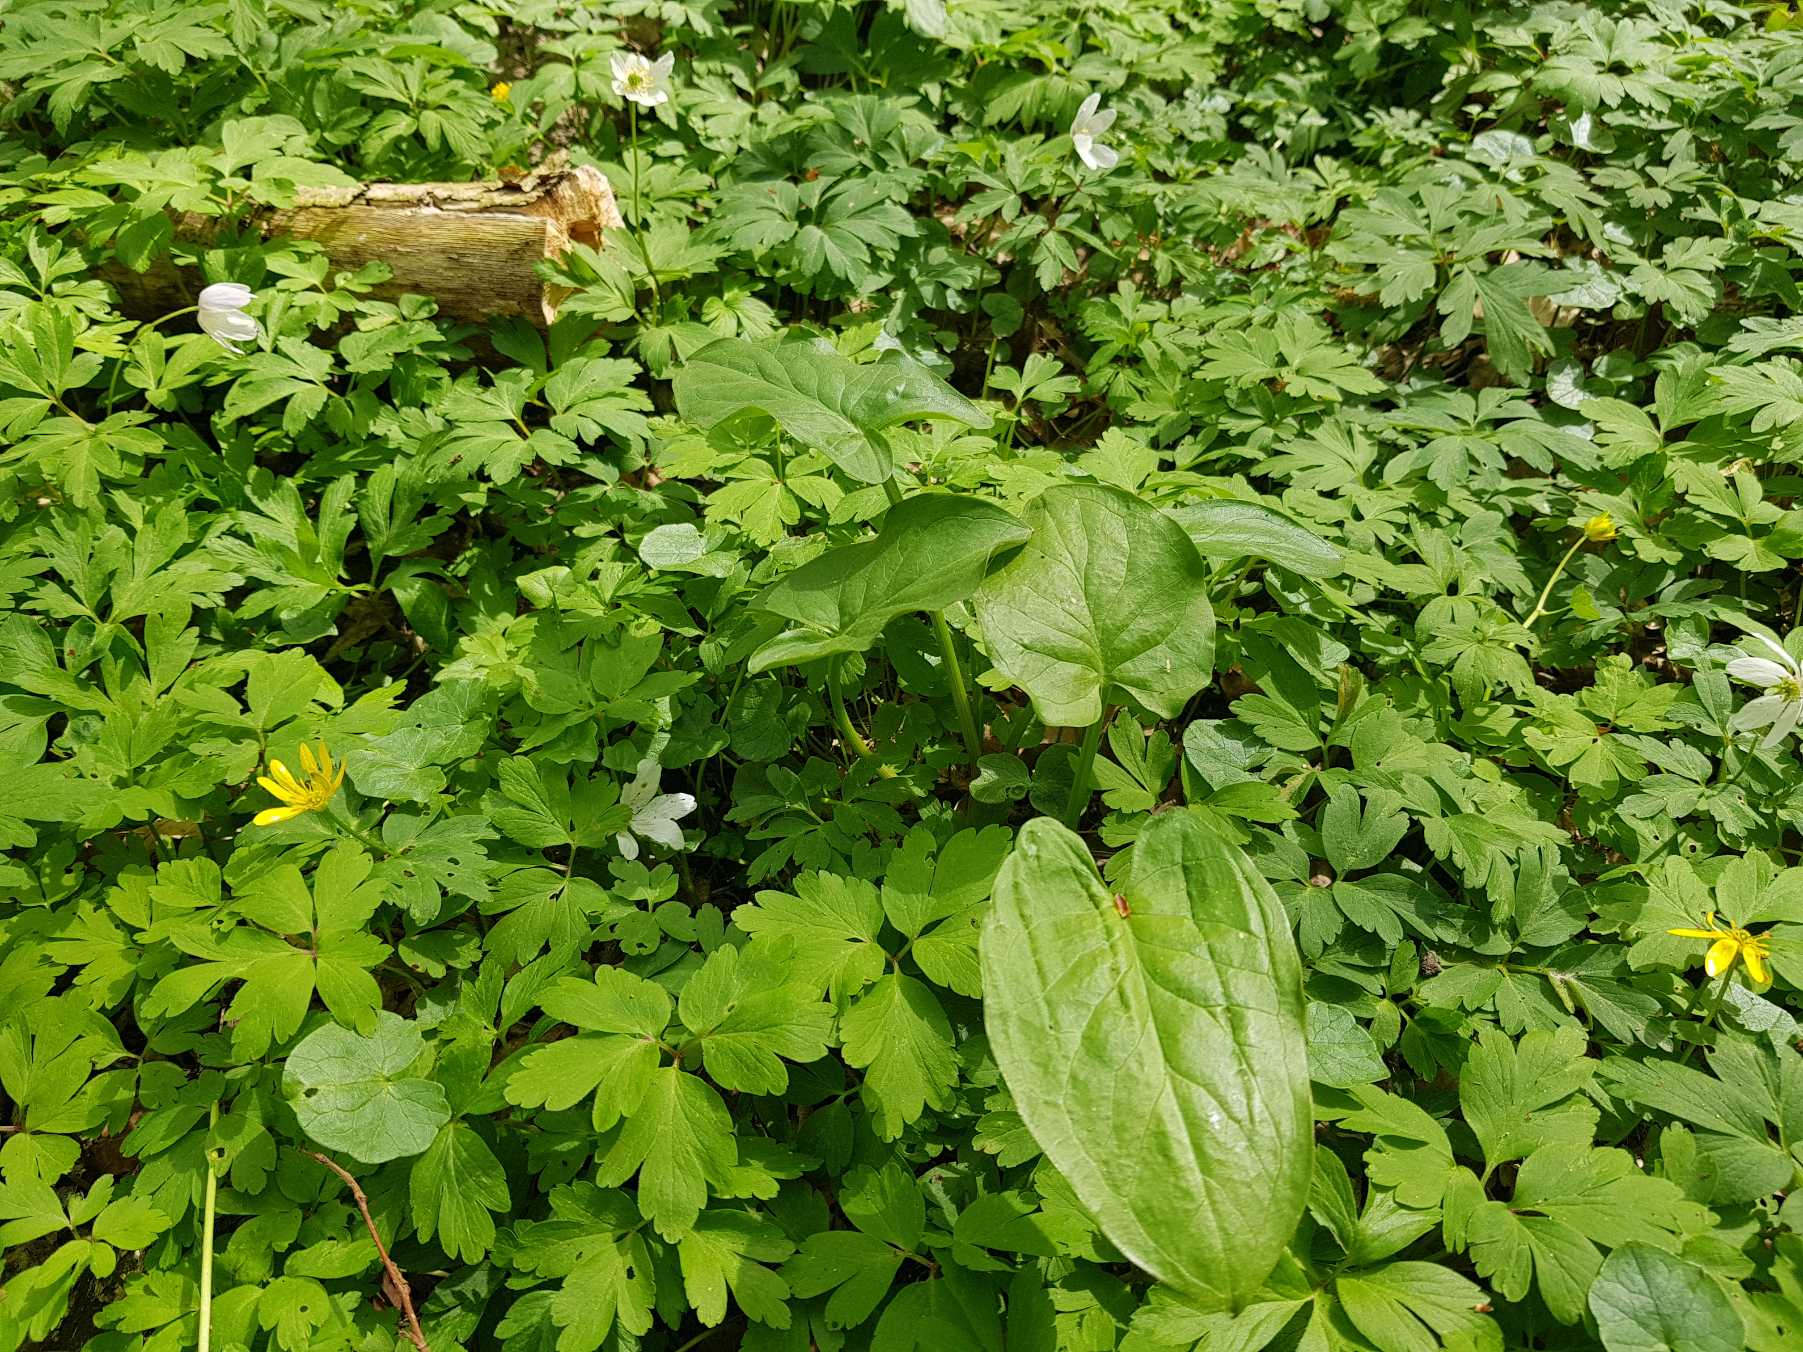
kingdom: Plantae
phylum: Tracheophyta
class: Liliopsida
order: Alismatales
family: Araceae
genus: Arum
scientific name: Arum maculatum
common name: Plettet arum
